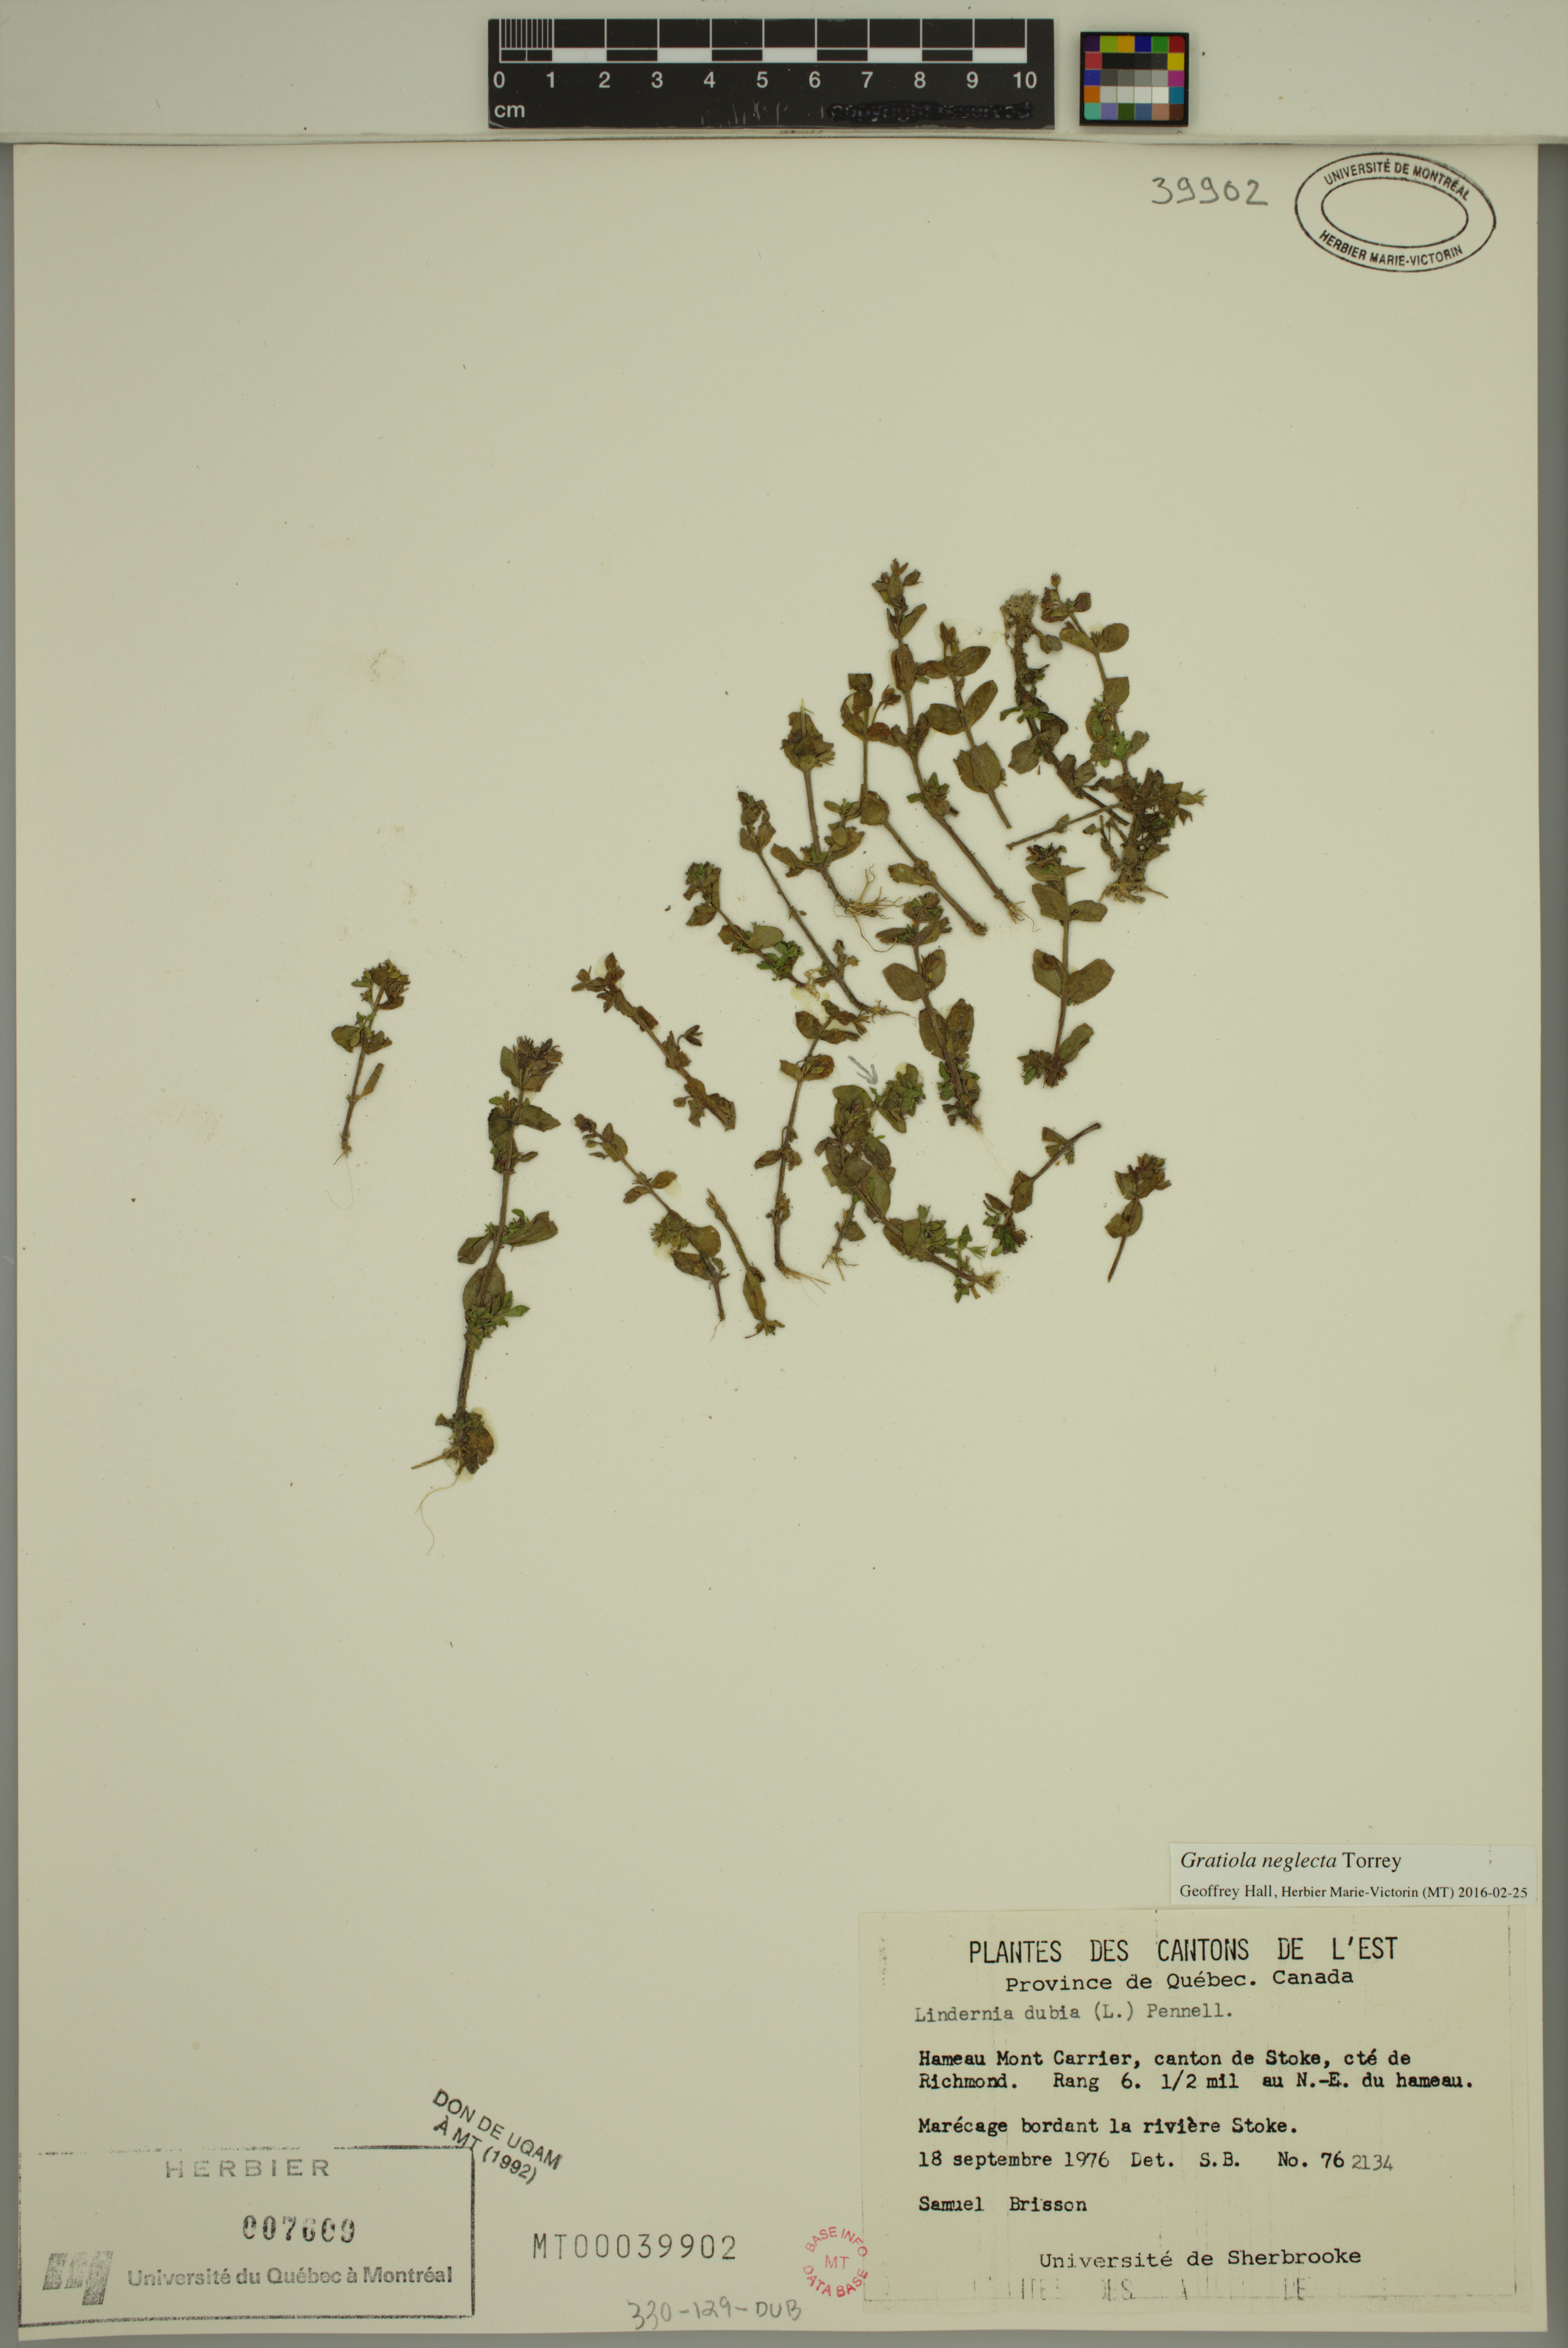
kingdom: Plantae
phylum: Tracheophyta
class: Magnoliopsida
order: Lamiales
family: Plantaginaceae
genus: Gratiola
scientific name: Gratiola neglecta
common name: American hedge-hyssop
